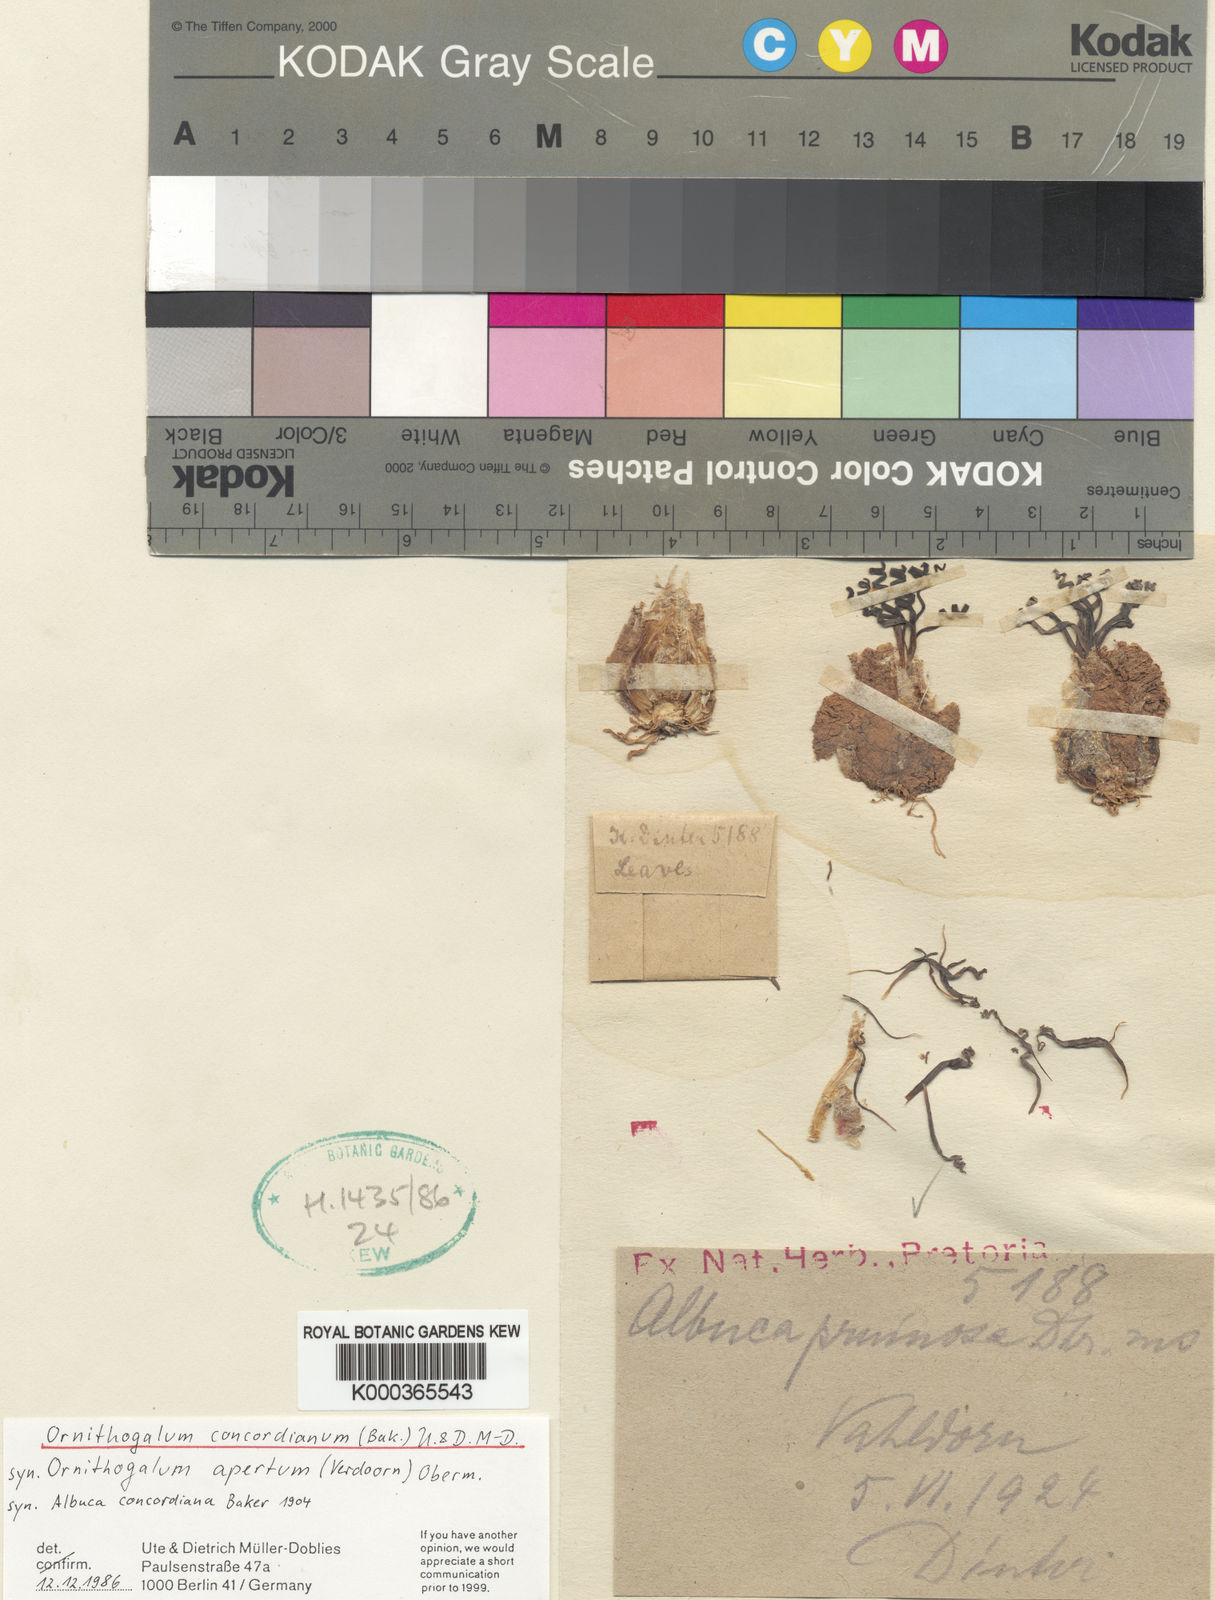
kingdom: Plantae
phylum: Tracheophyta
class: Liliopsida
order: Asparagales
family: Asparagaceae
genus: Ornithogalum
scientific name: Ornithogalum
